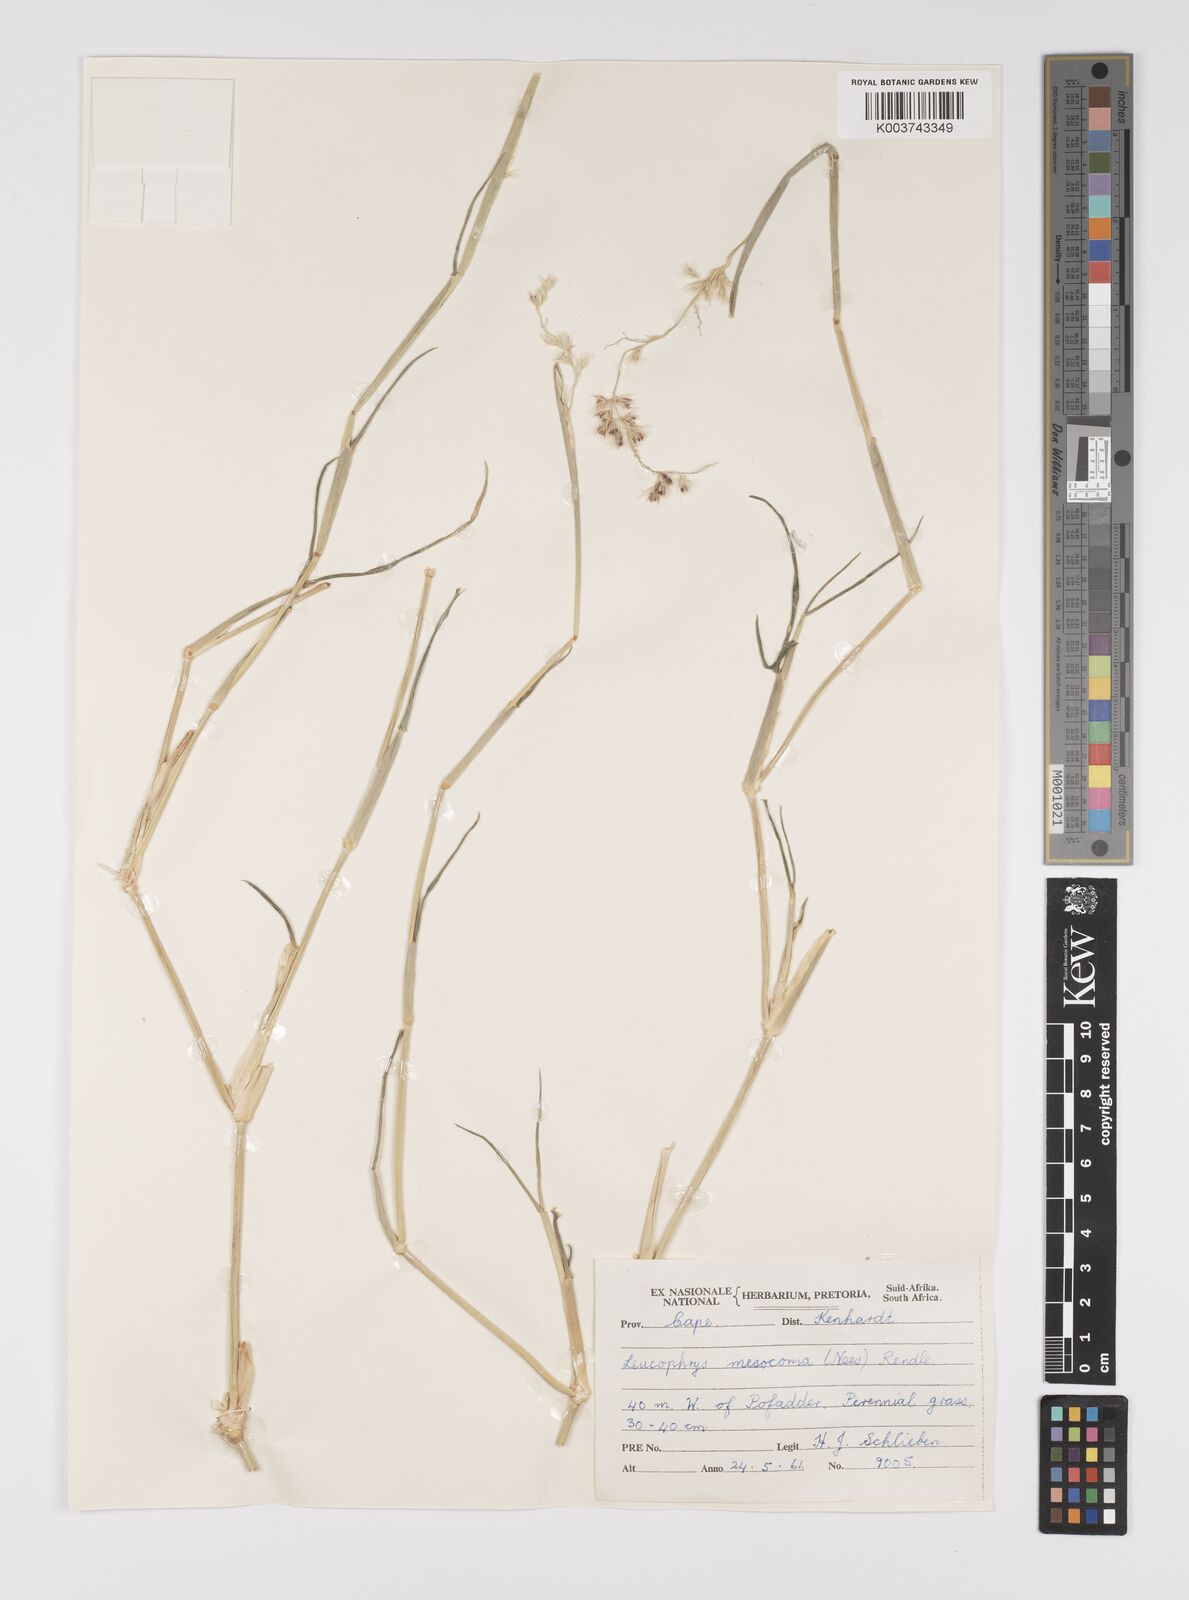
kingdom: Plantae
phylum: Tracheophyta
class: Liliopsida
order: Poales
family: Poaceae
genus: Urochloa
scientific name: Urochloa Brachiaria mesocoma
